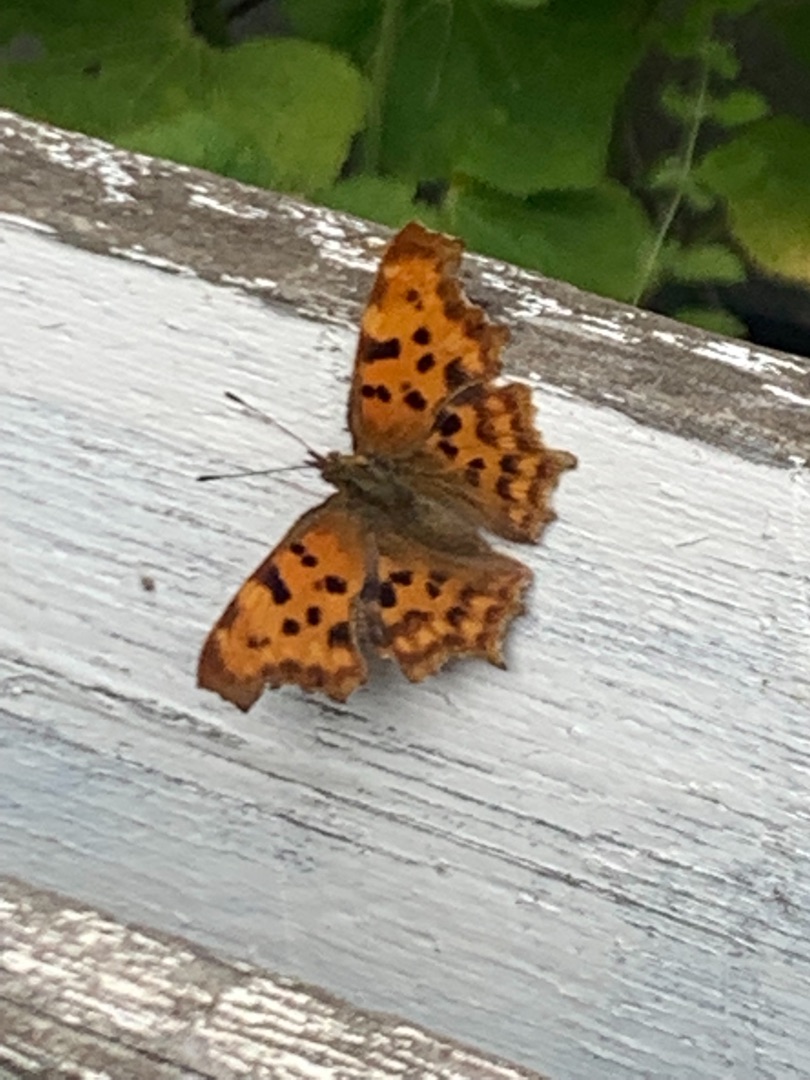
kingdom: Animalia
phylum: Arthropoda
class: Insecta
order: Lepidoptera
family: Nymphalidae
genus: Polygonia
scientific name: Polygonia c-album
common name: Det hvide C
